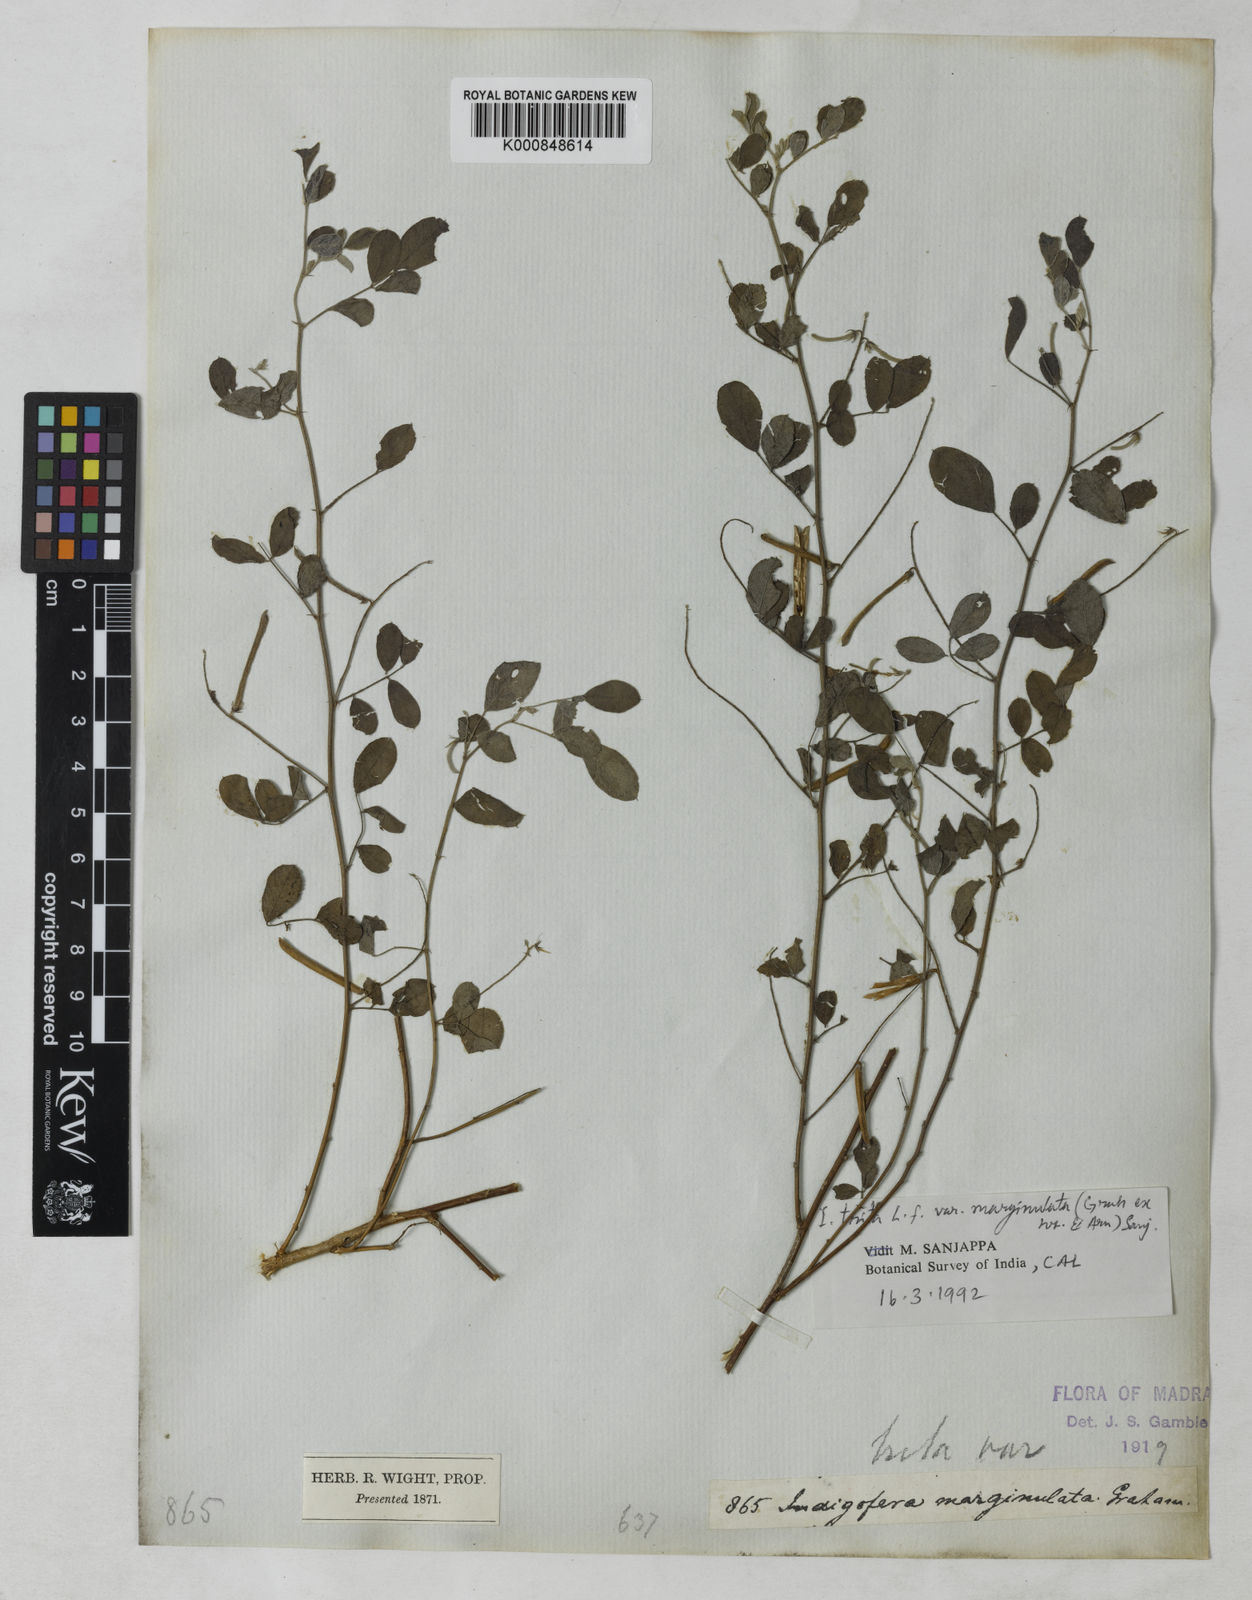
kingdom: Plantae
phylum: Tracheophyta
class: Magnoliopsida
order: Fabales
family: Fabaceae
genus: Indigofera
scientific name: Indigofera
